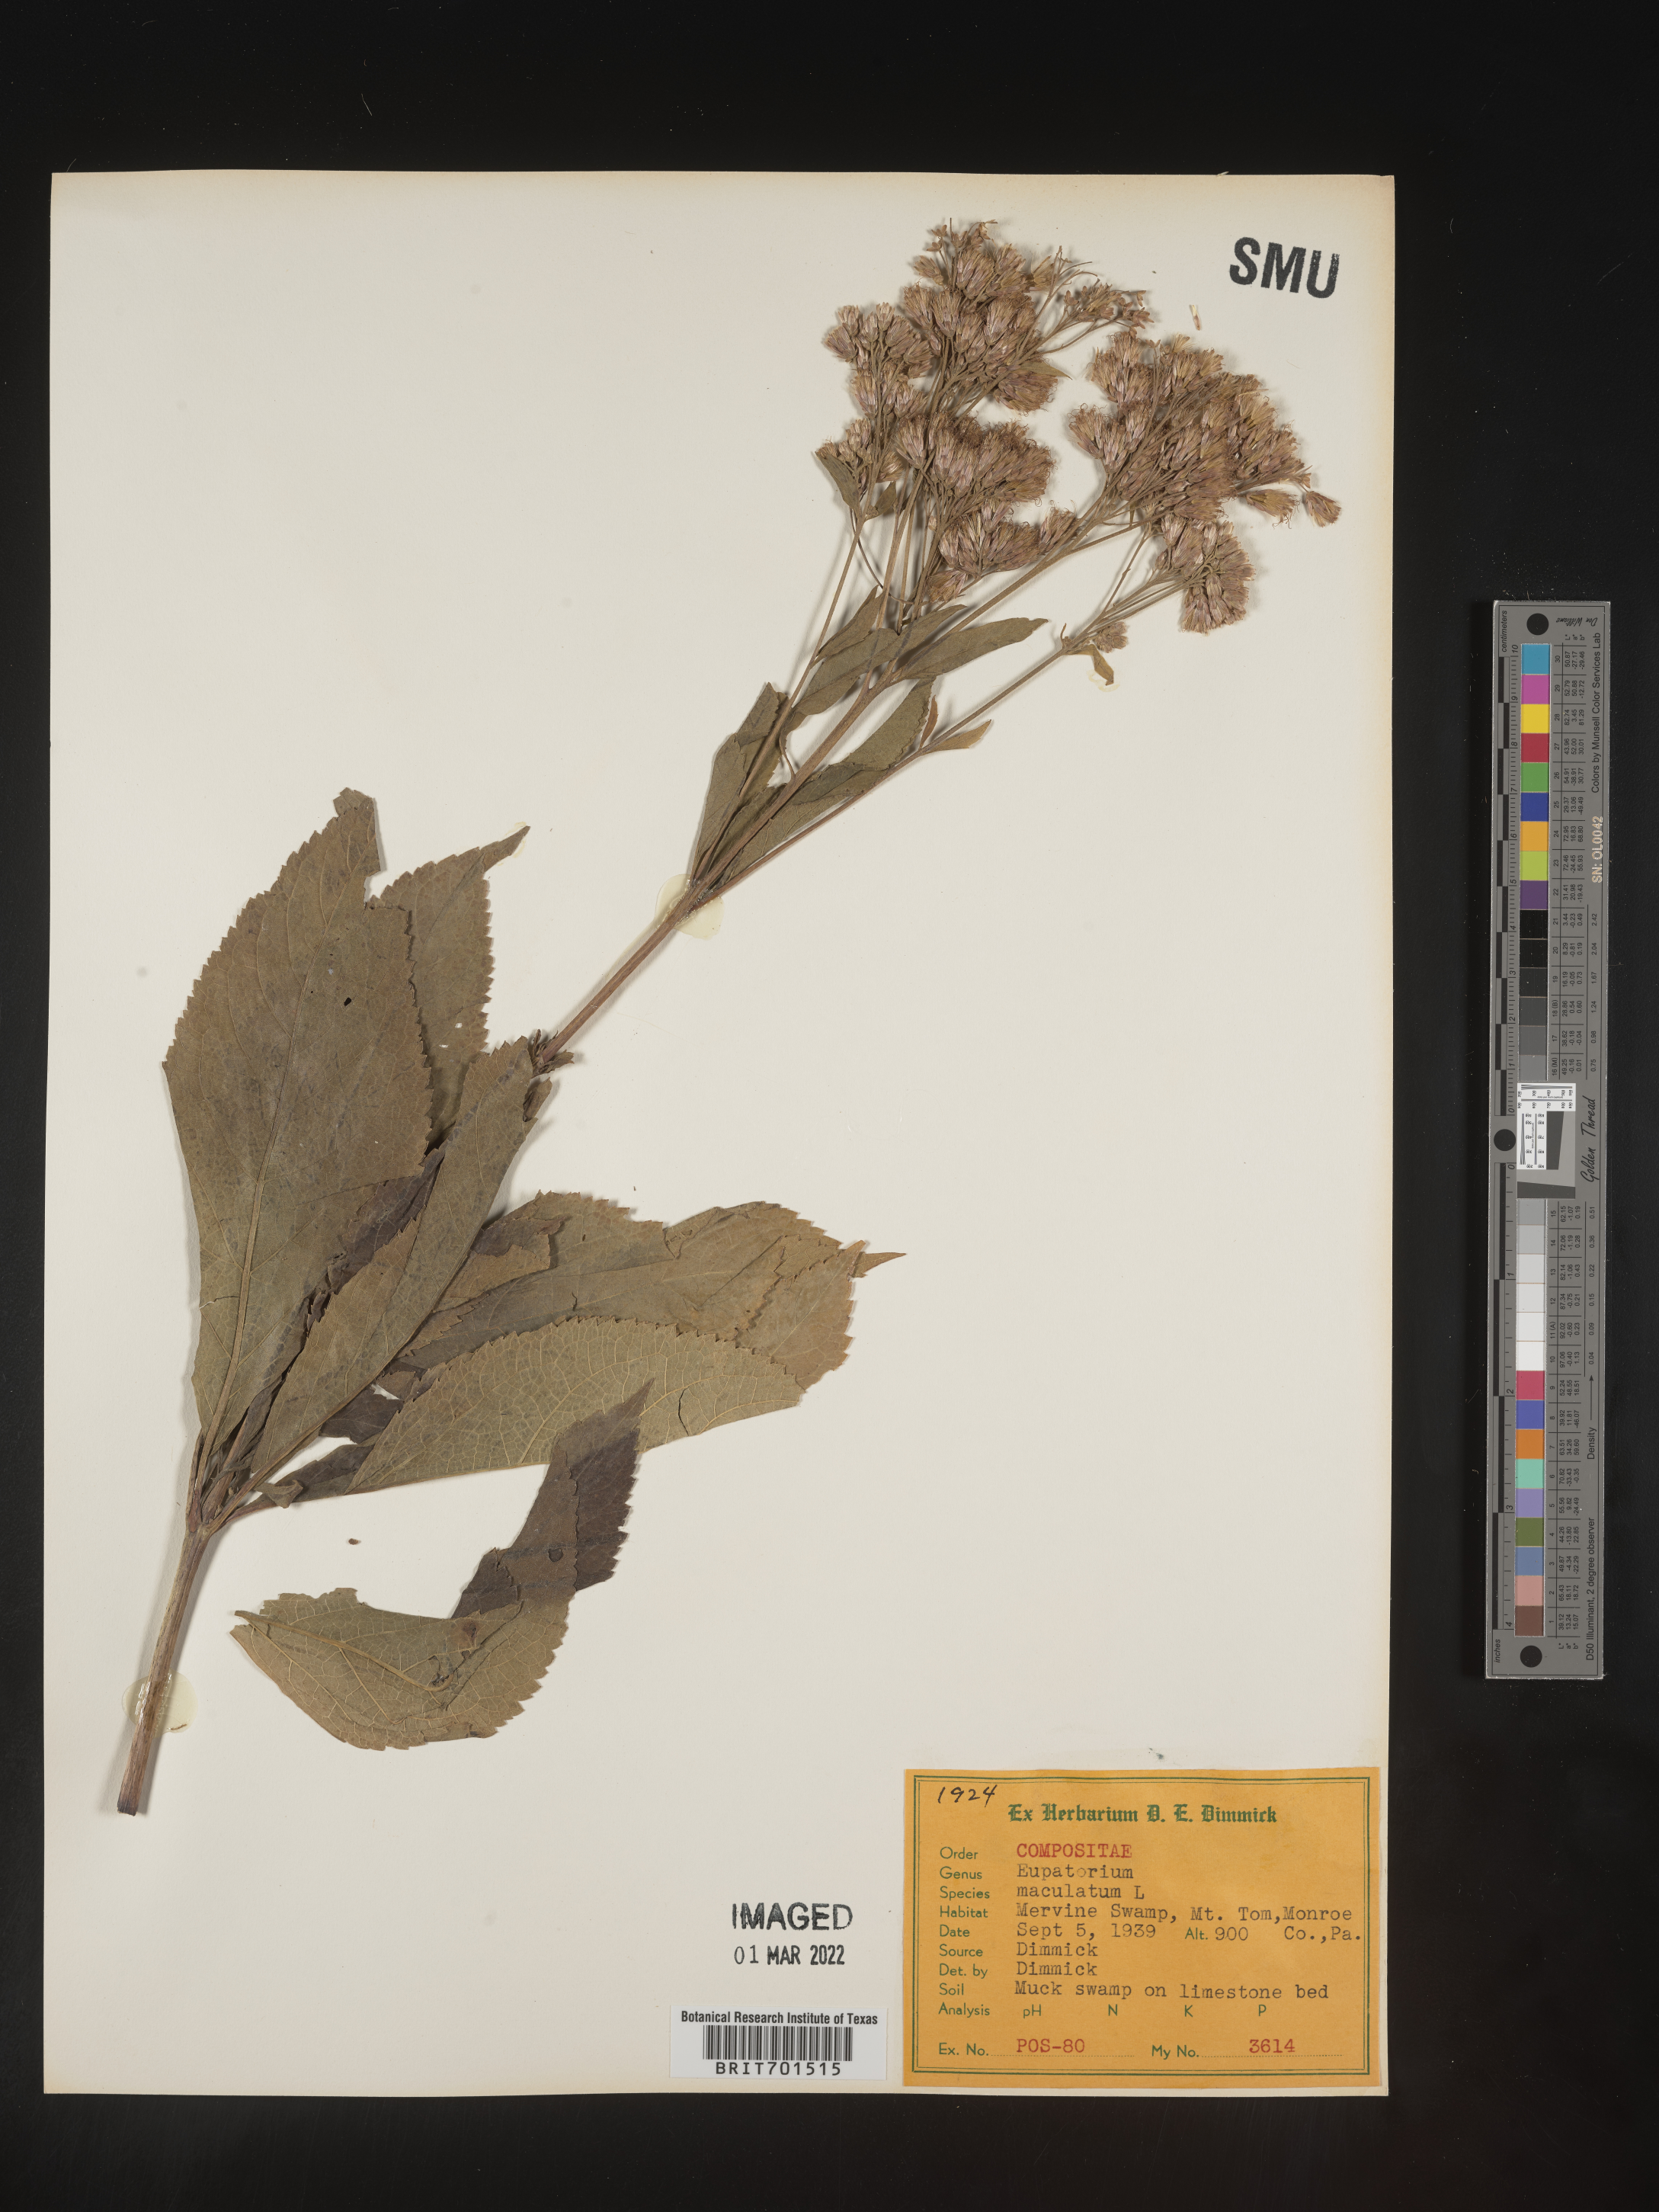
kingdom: Plantae
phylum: Tracheophyta
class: Magnoliopsida
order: Asterales
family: Asteraceae
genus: Eutrochium
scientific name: Eutrochium maculatum
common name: Spotted joe pye weed
